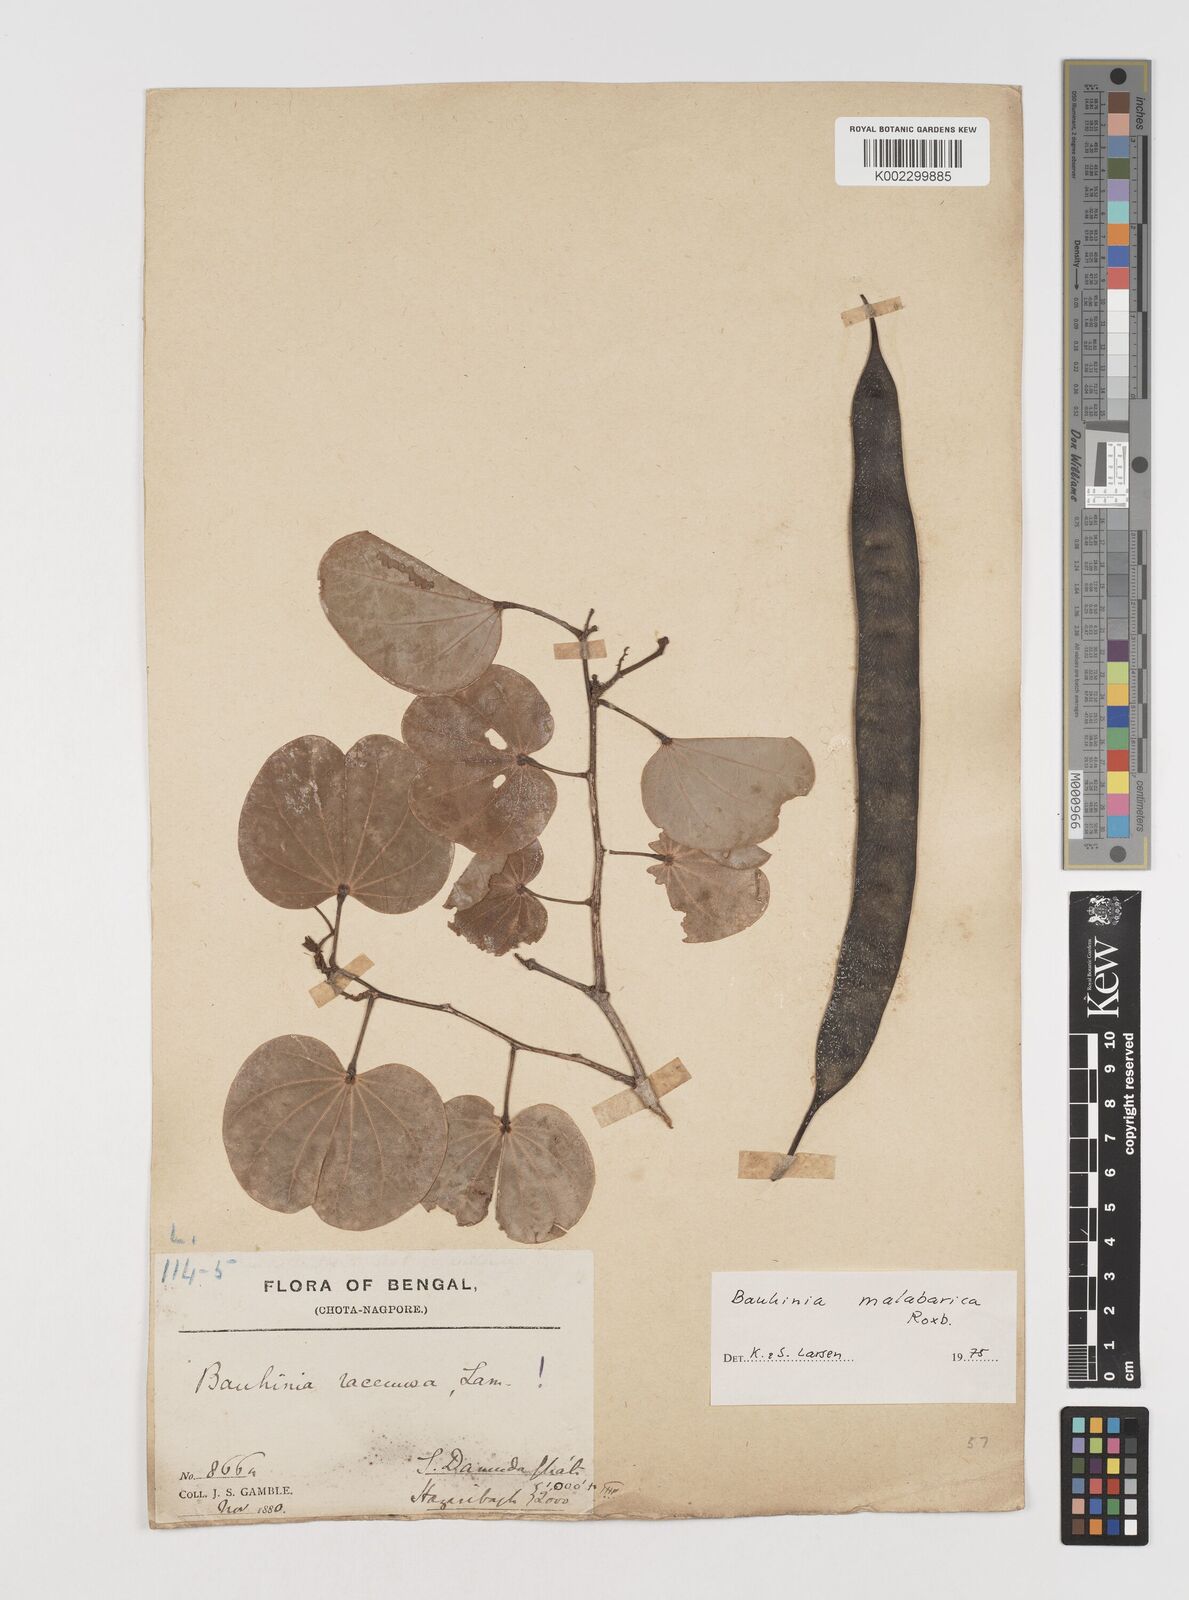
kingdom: Plantae
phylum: Tracheophyta
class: Magnoliopsida
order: Fabales
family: Fabaceae
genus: Piliostigma
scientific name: Piliostigma malabaricum
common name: Malabar bauhinia
